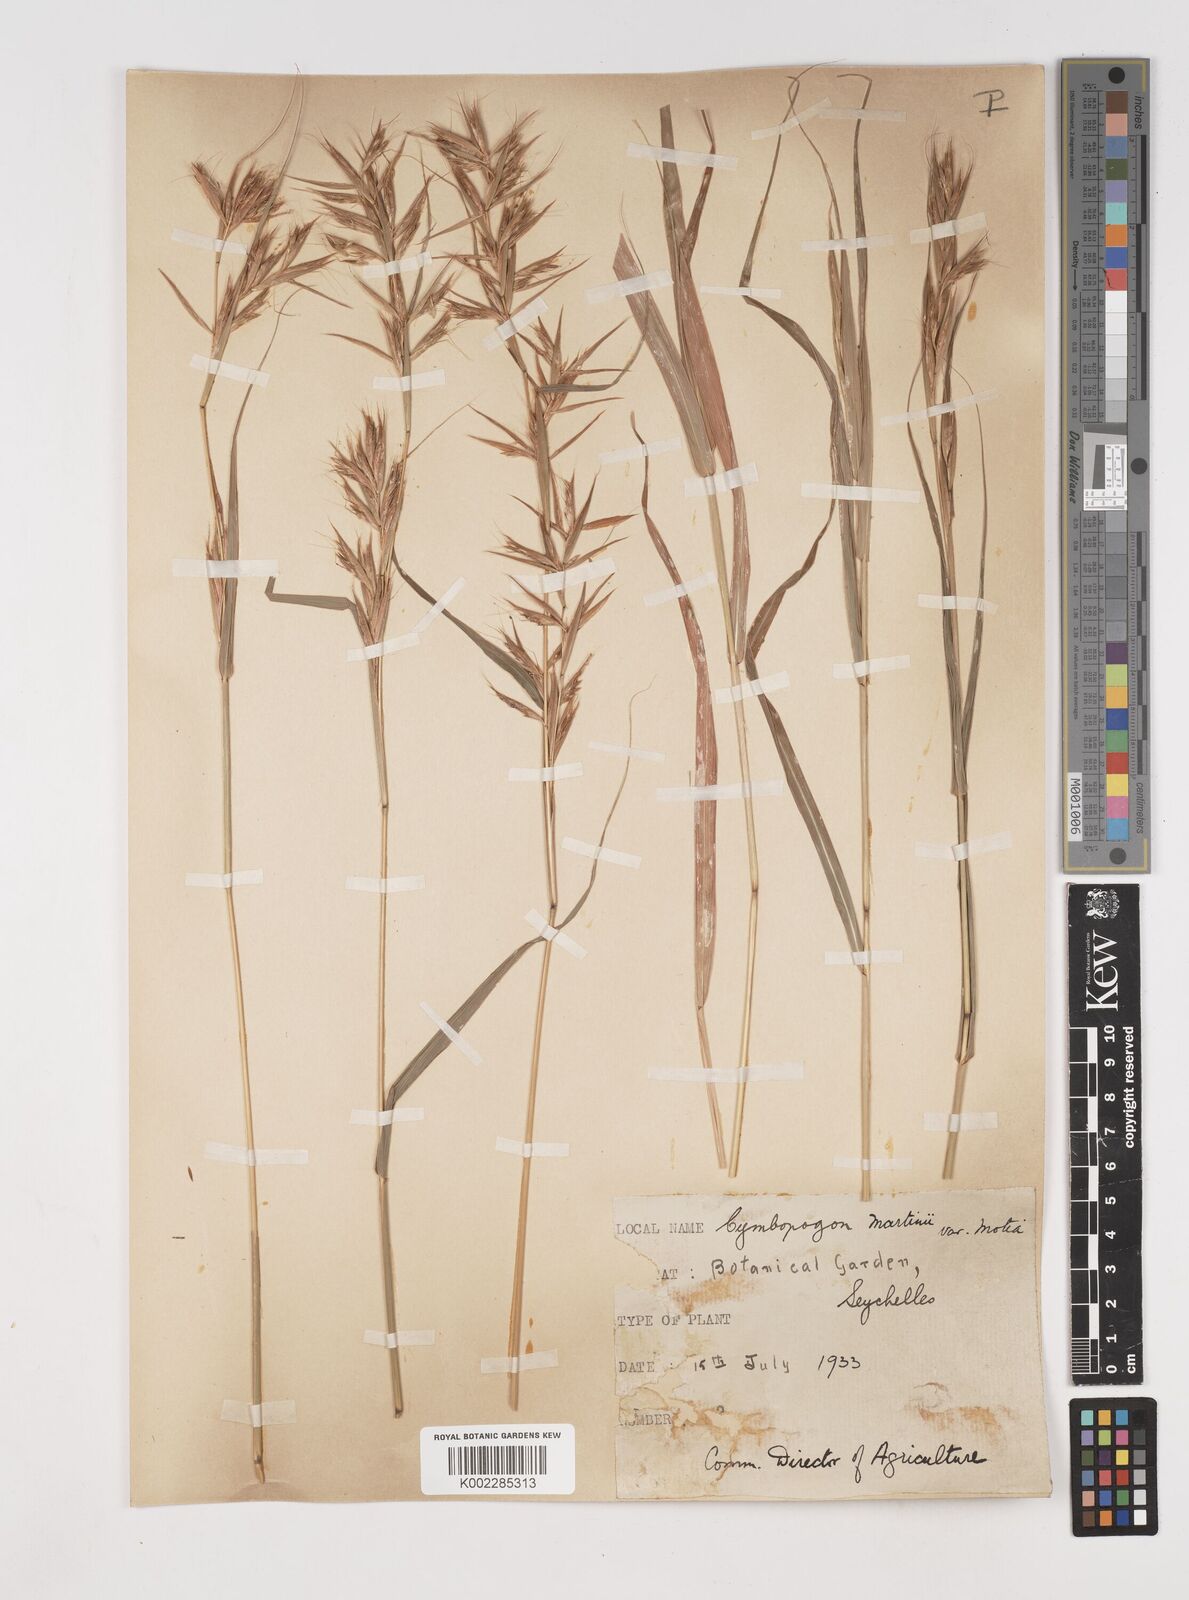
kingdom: Plantae
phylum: Tracheophyta
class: Liliopsida
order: Poales
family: Poaceae
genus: Cymbopogon
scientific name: Cymbopogon martini
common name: Ginger grass
